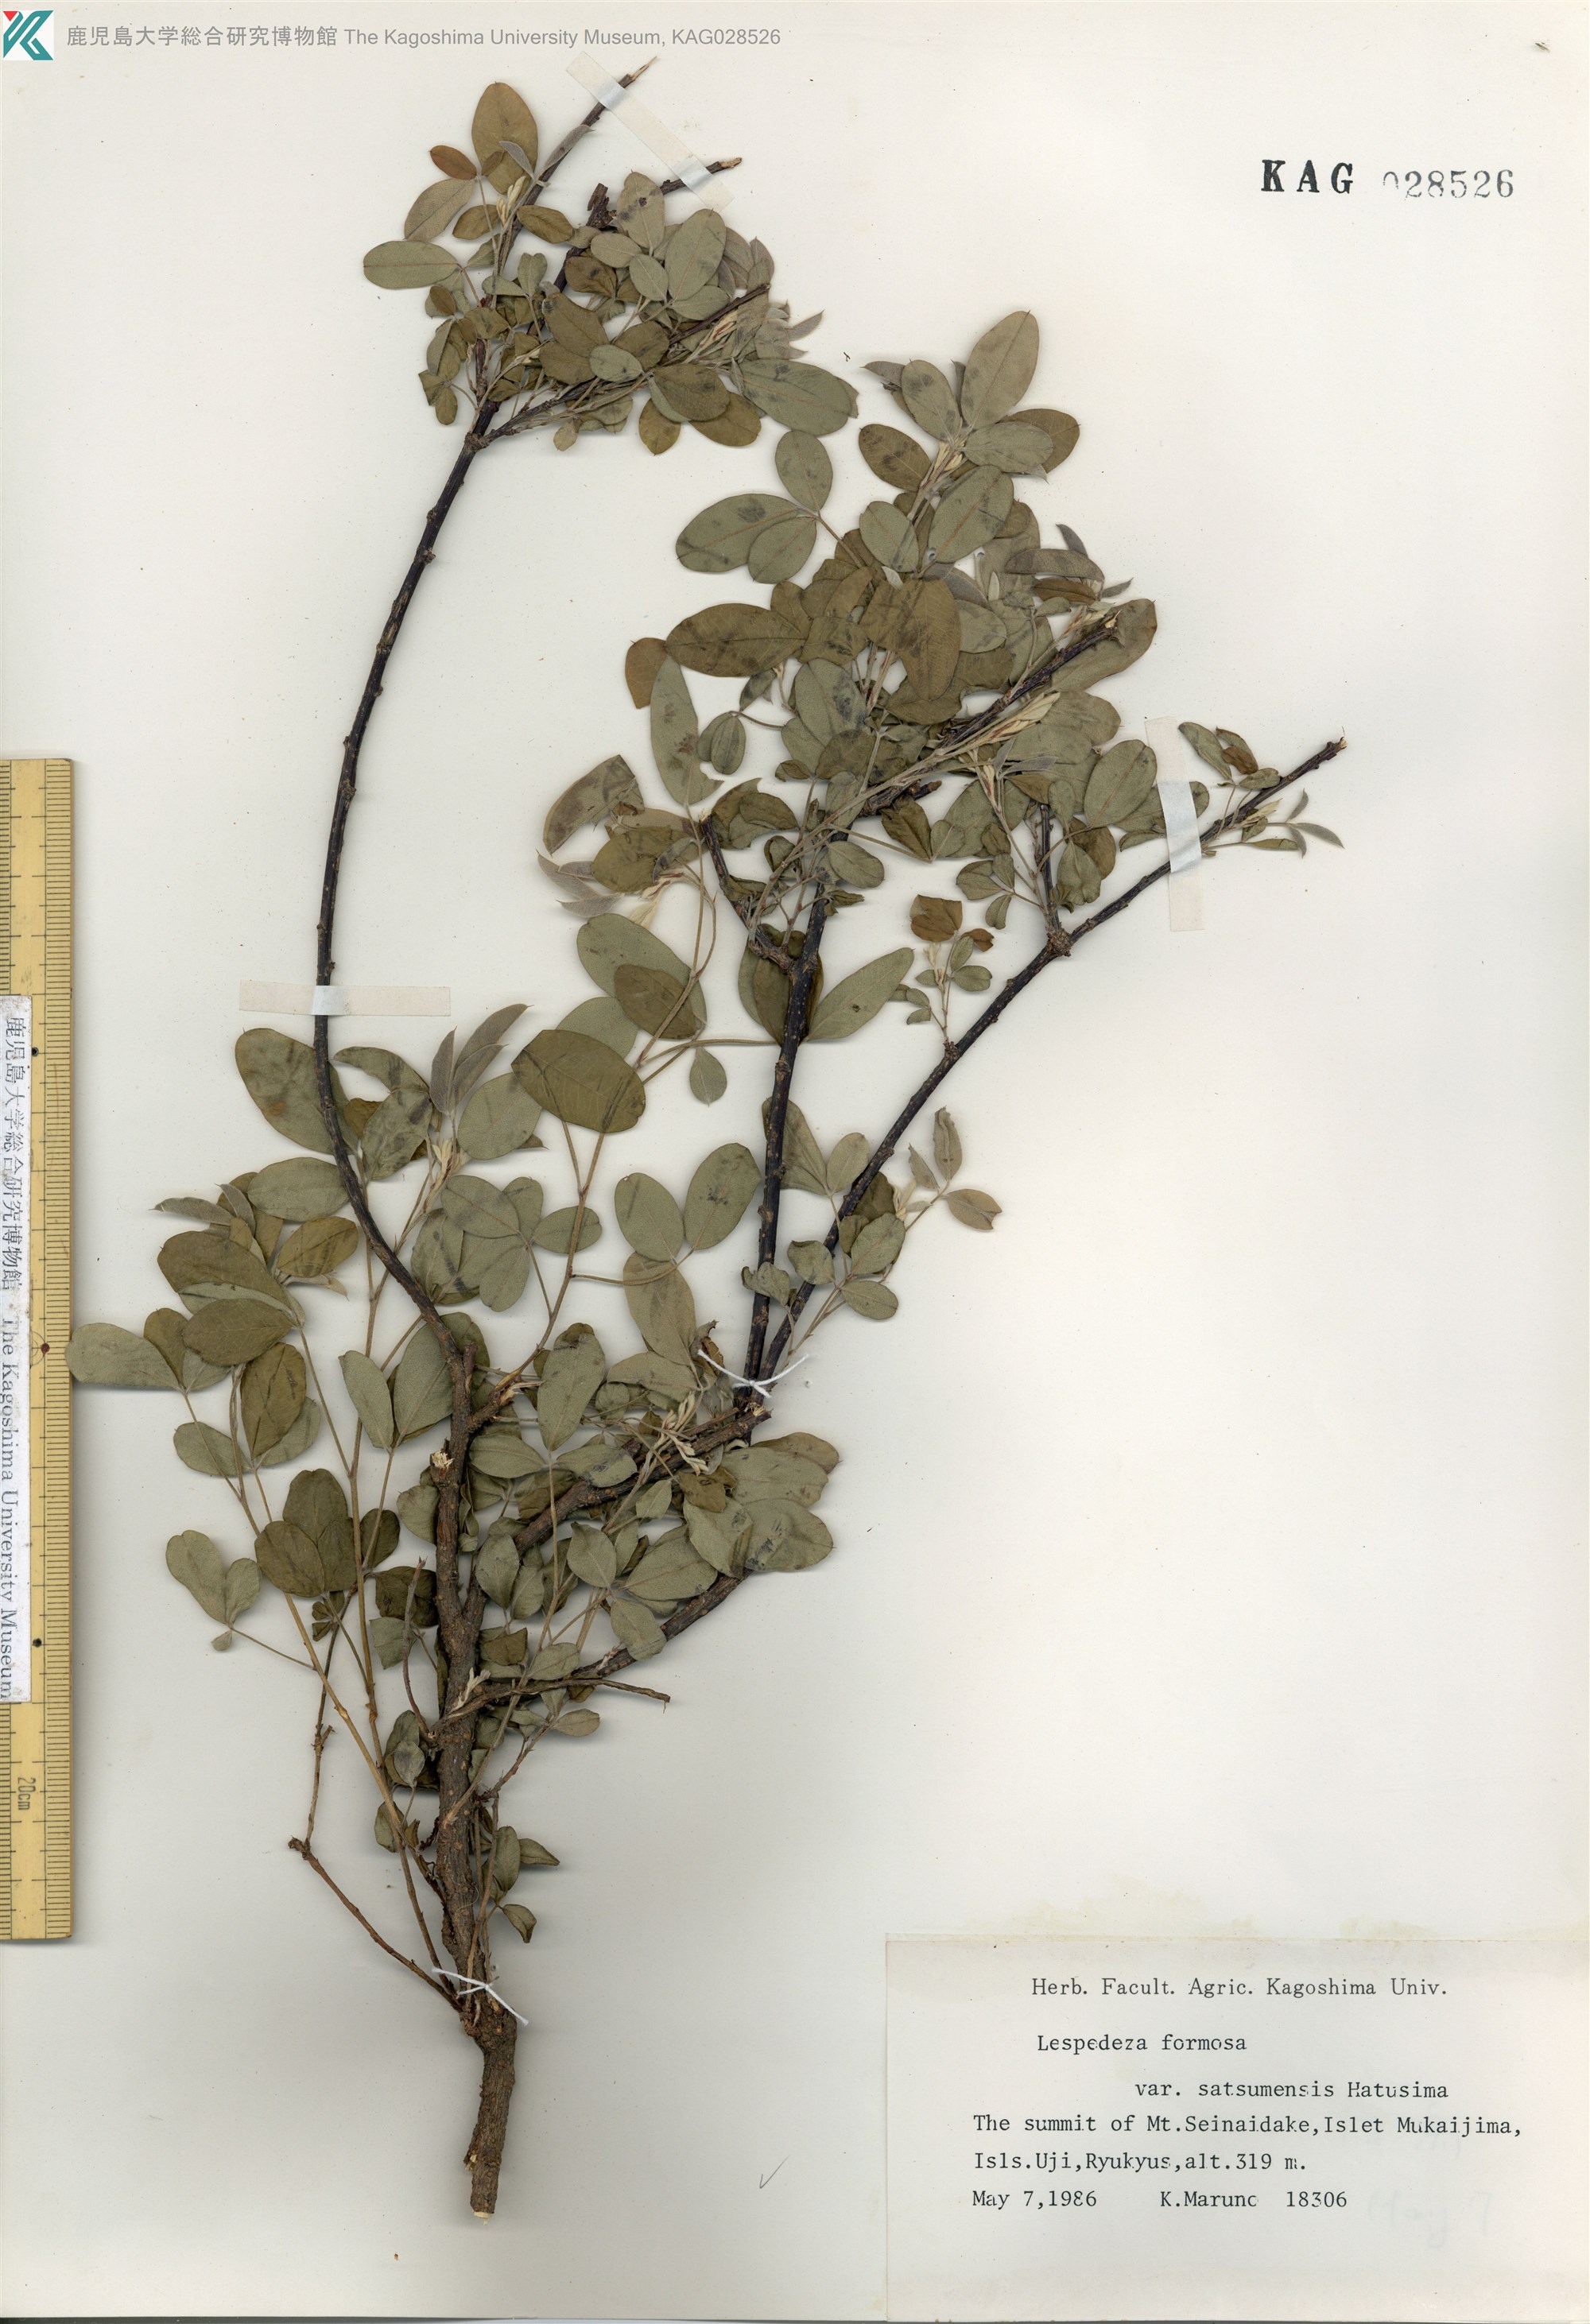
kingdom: Plantae
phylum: Tracheophyta
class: Magnoliopsida
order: Fabales
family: Fabaceae
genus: Lespedeza
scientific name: Lespedeza thunbergii
